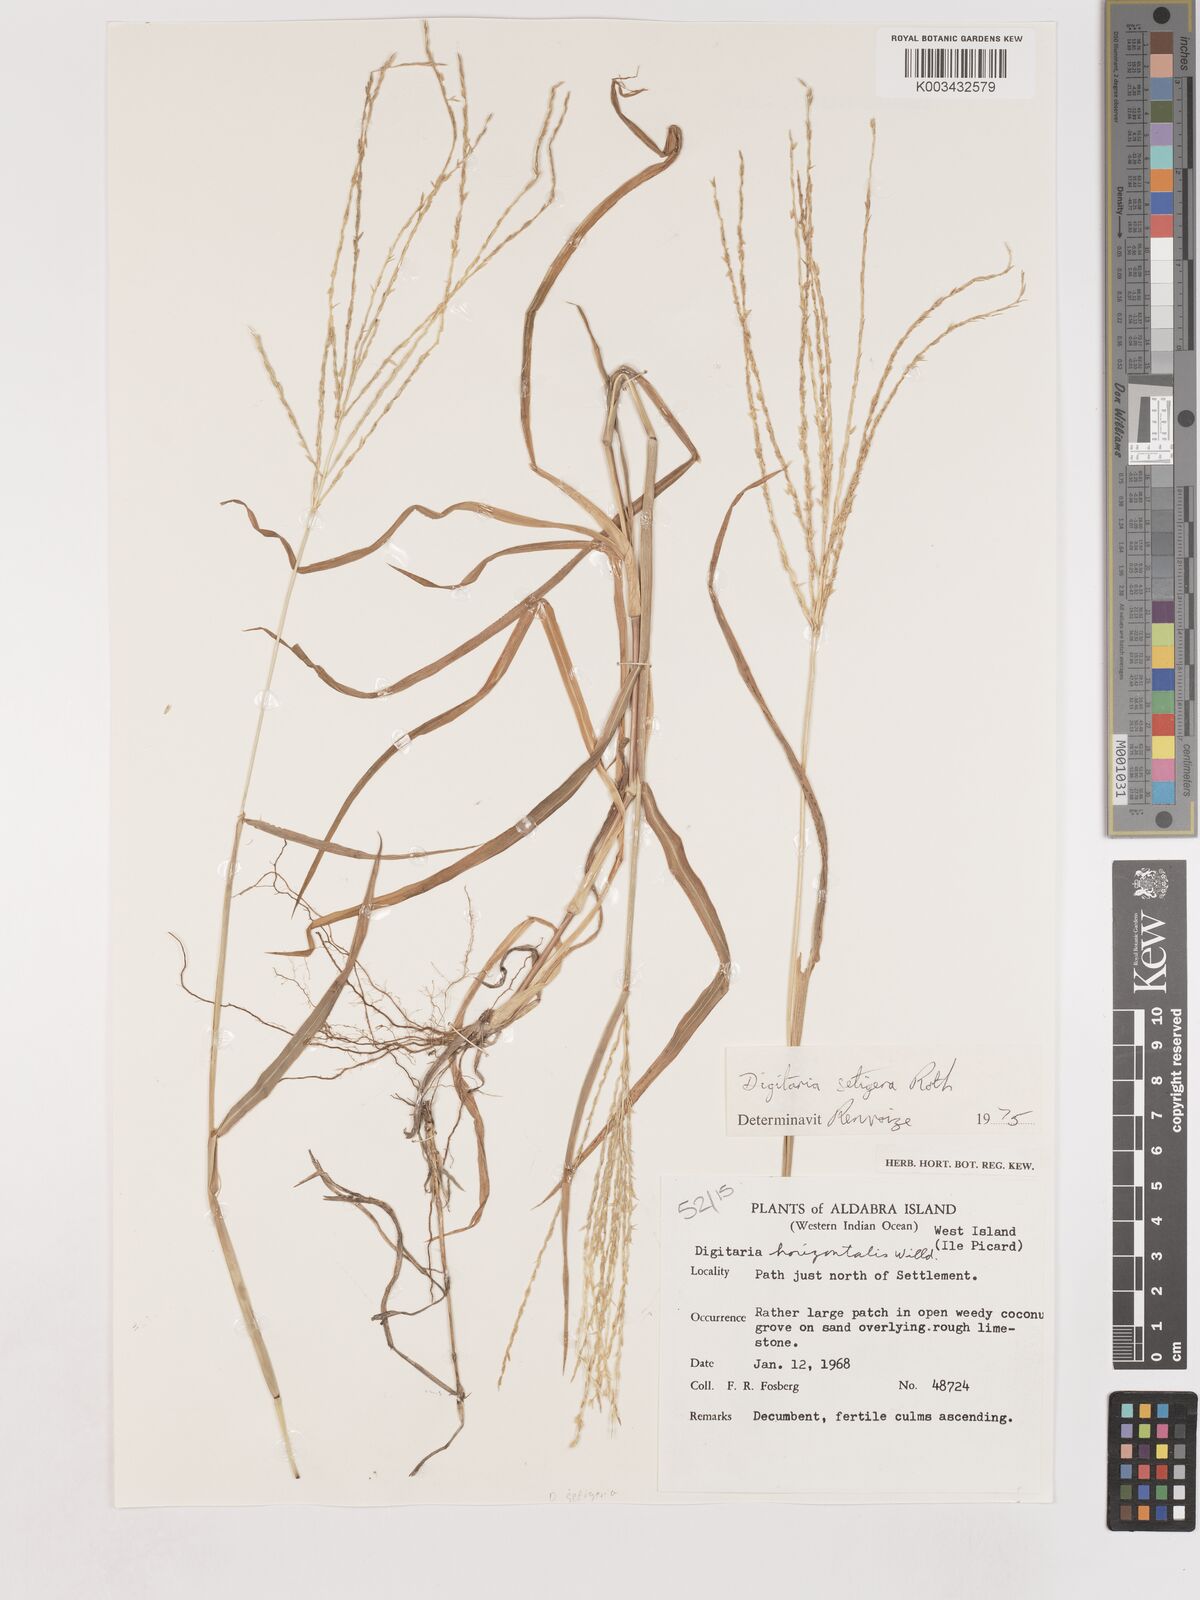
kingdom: Plantae
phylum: Tracheophyta
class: Liliopsida
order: Poales
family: Poaceae
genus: Digitaria
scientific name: Digitaria setigera
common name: East indian crabgrass
